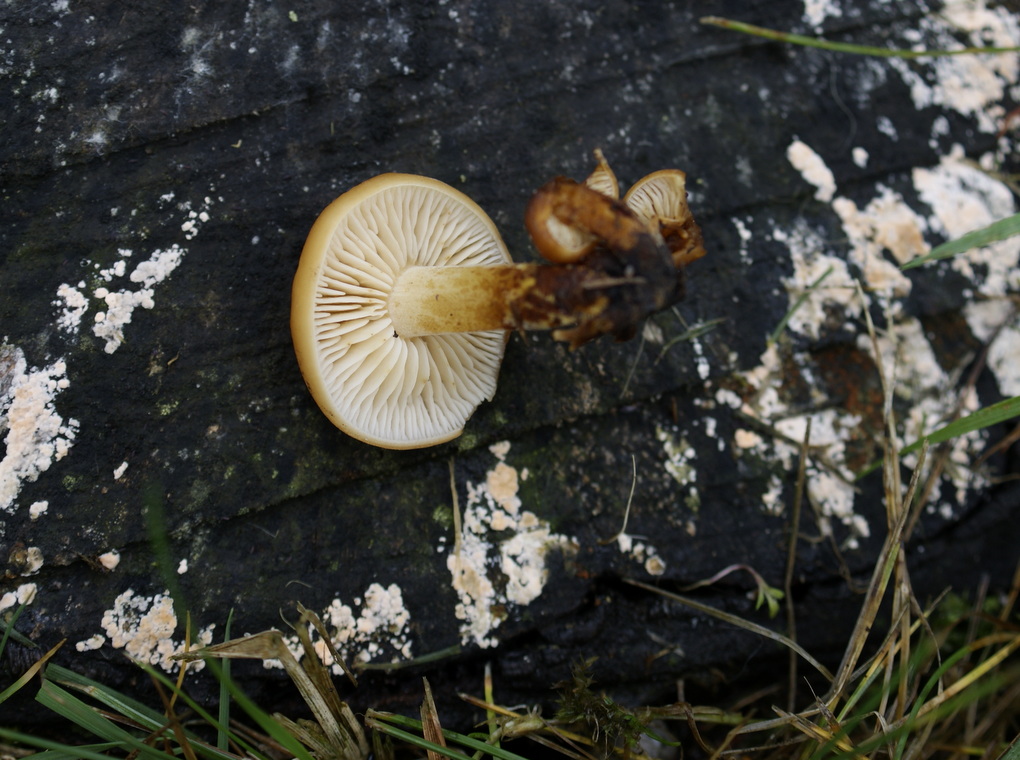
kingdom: Fungi
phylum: Basidiomycota
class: Agaricomycetes
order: Agaricales
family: Physalacriaceae
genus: Flammulina
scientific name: Flammulina velutipes
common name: gul fløjlsfod
